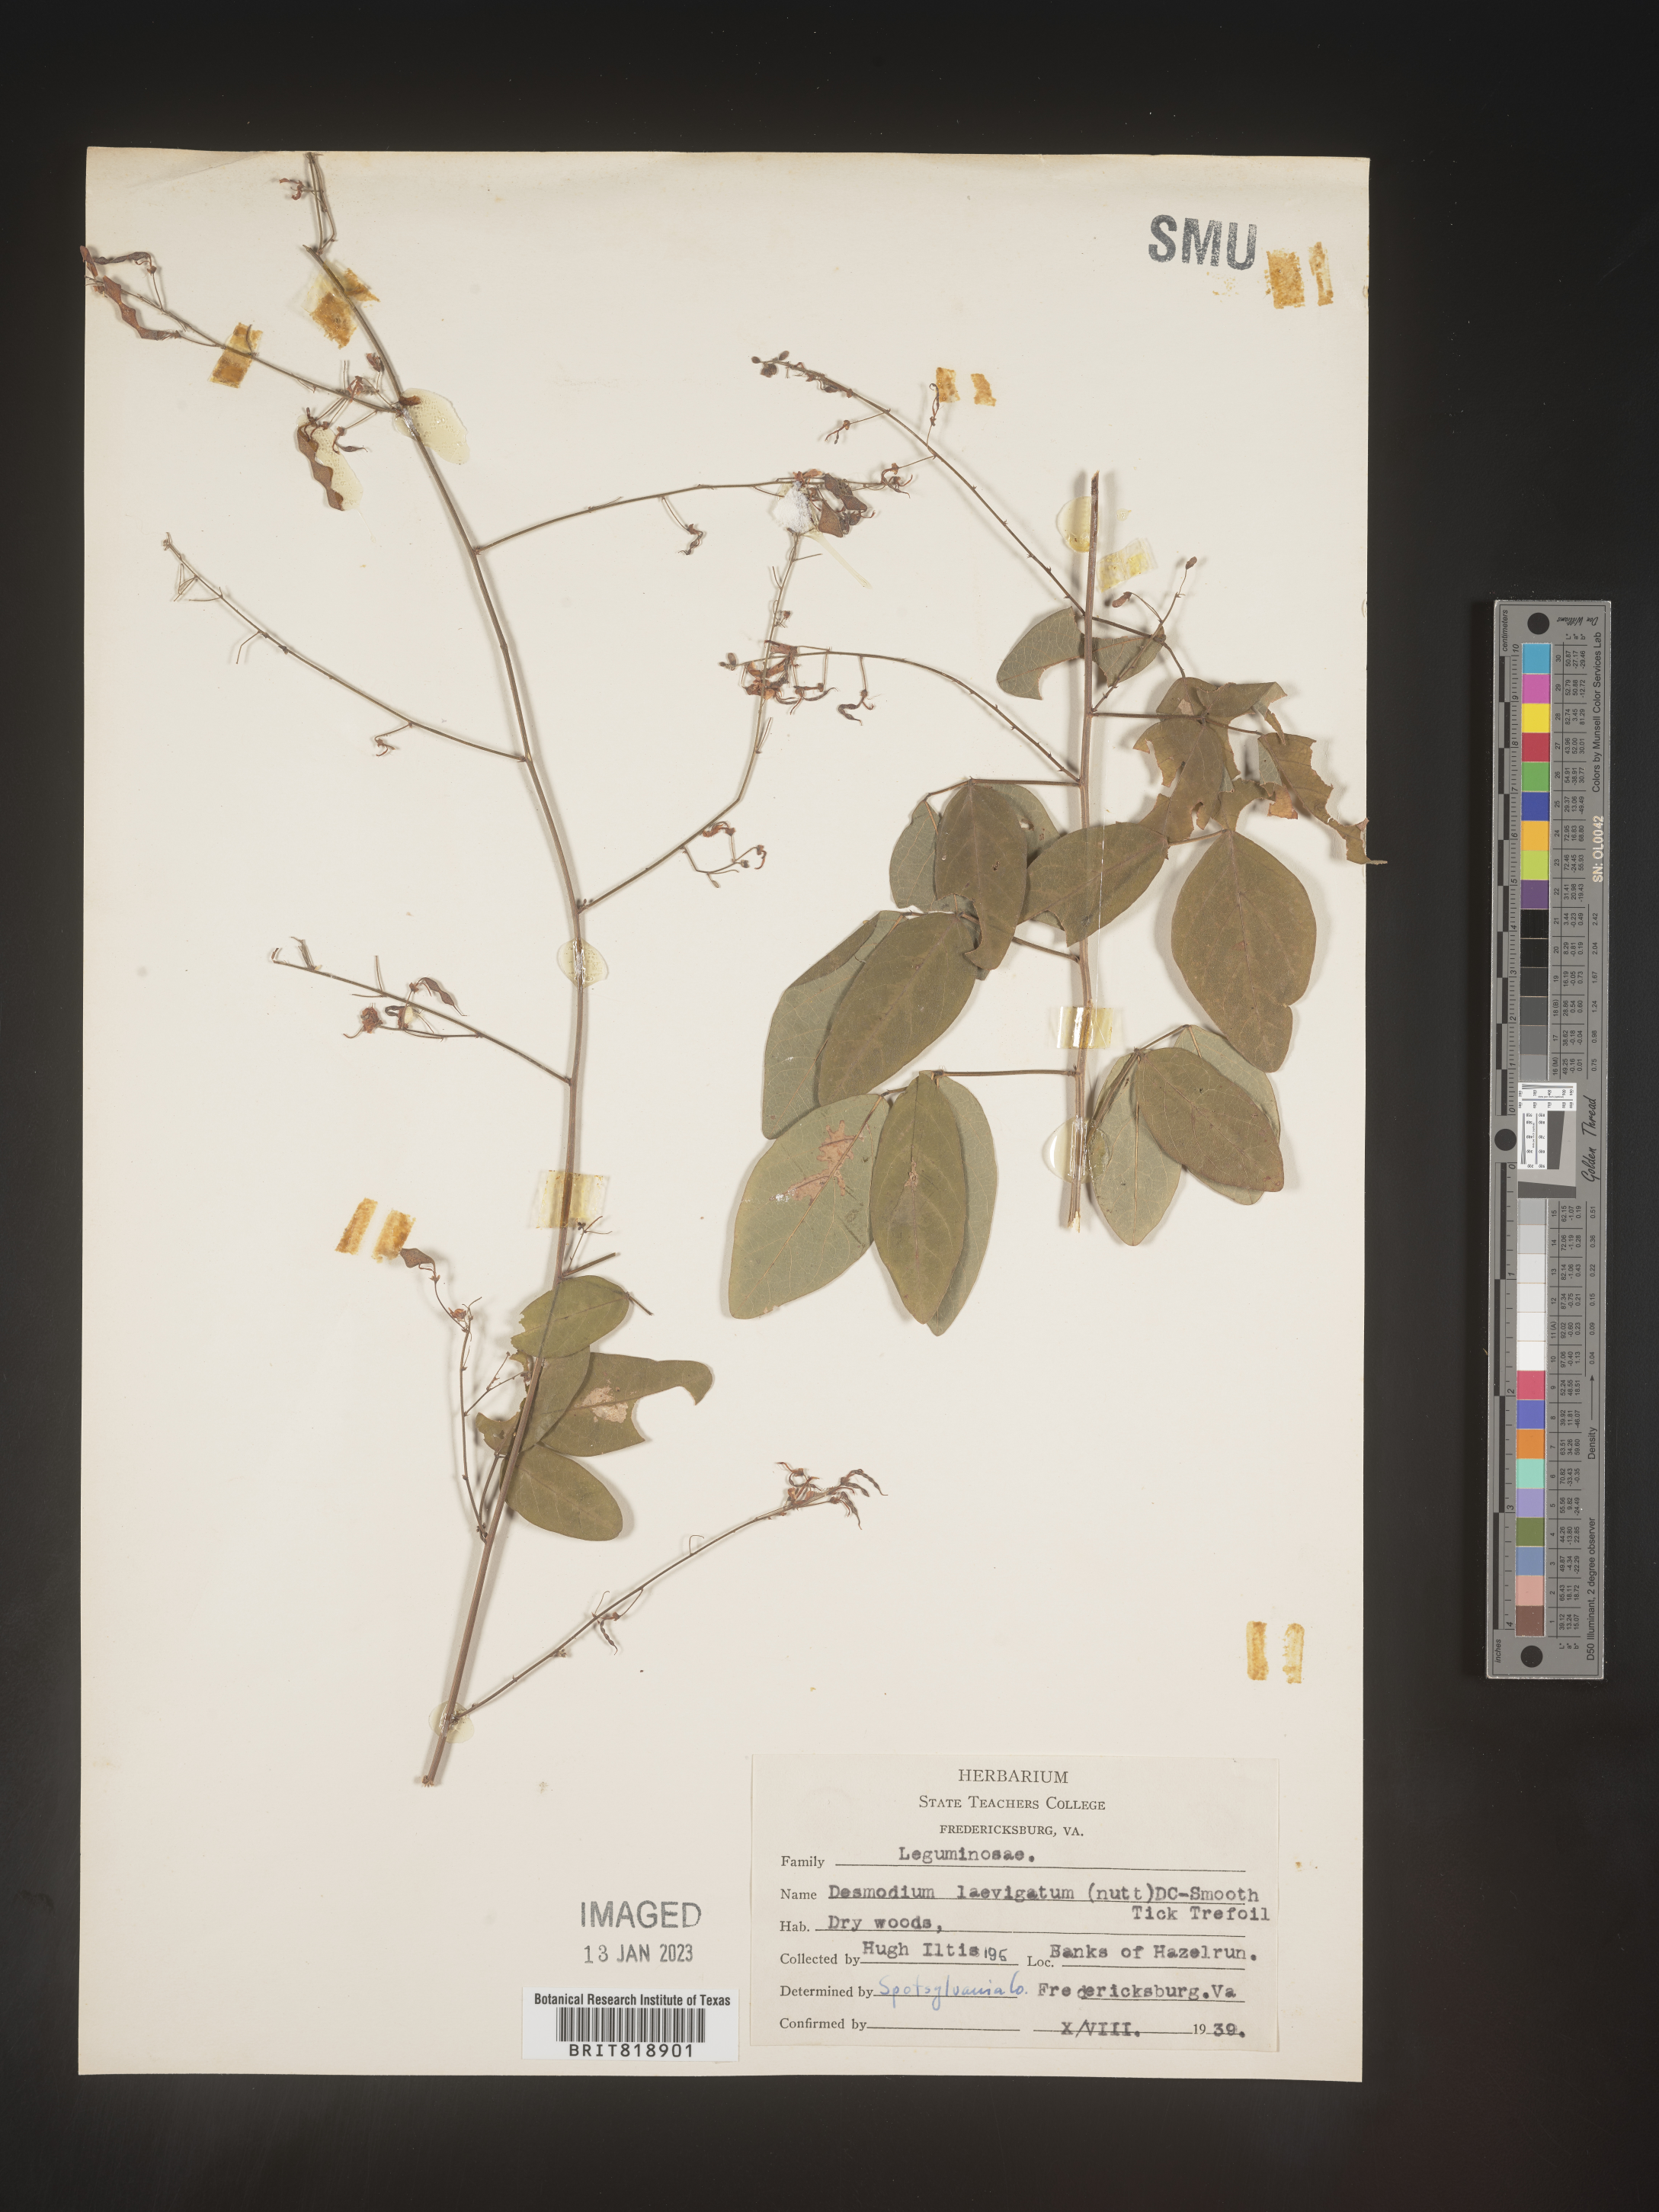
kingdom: Plantae
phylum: Tracheophyta
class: Magnoliopsida
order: Fabales
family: Fabaceae
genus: Desmodium
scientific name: Desmodium laevigatum
